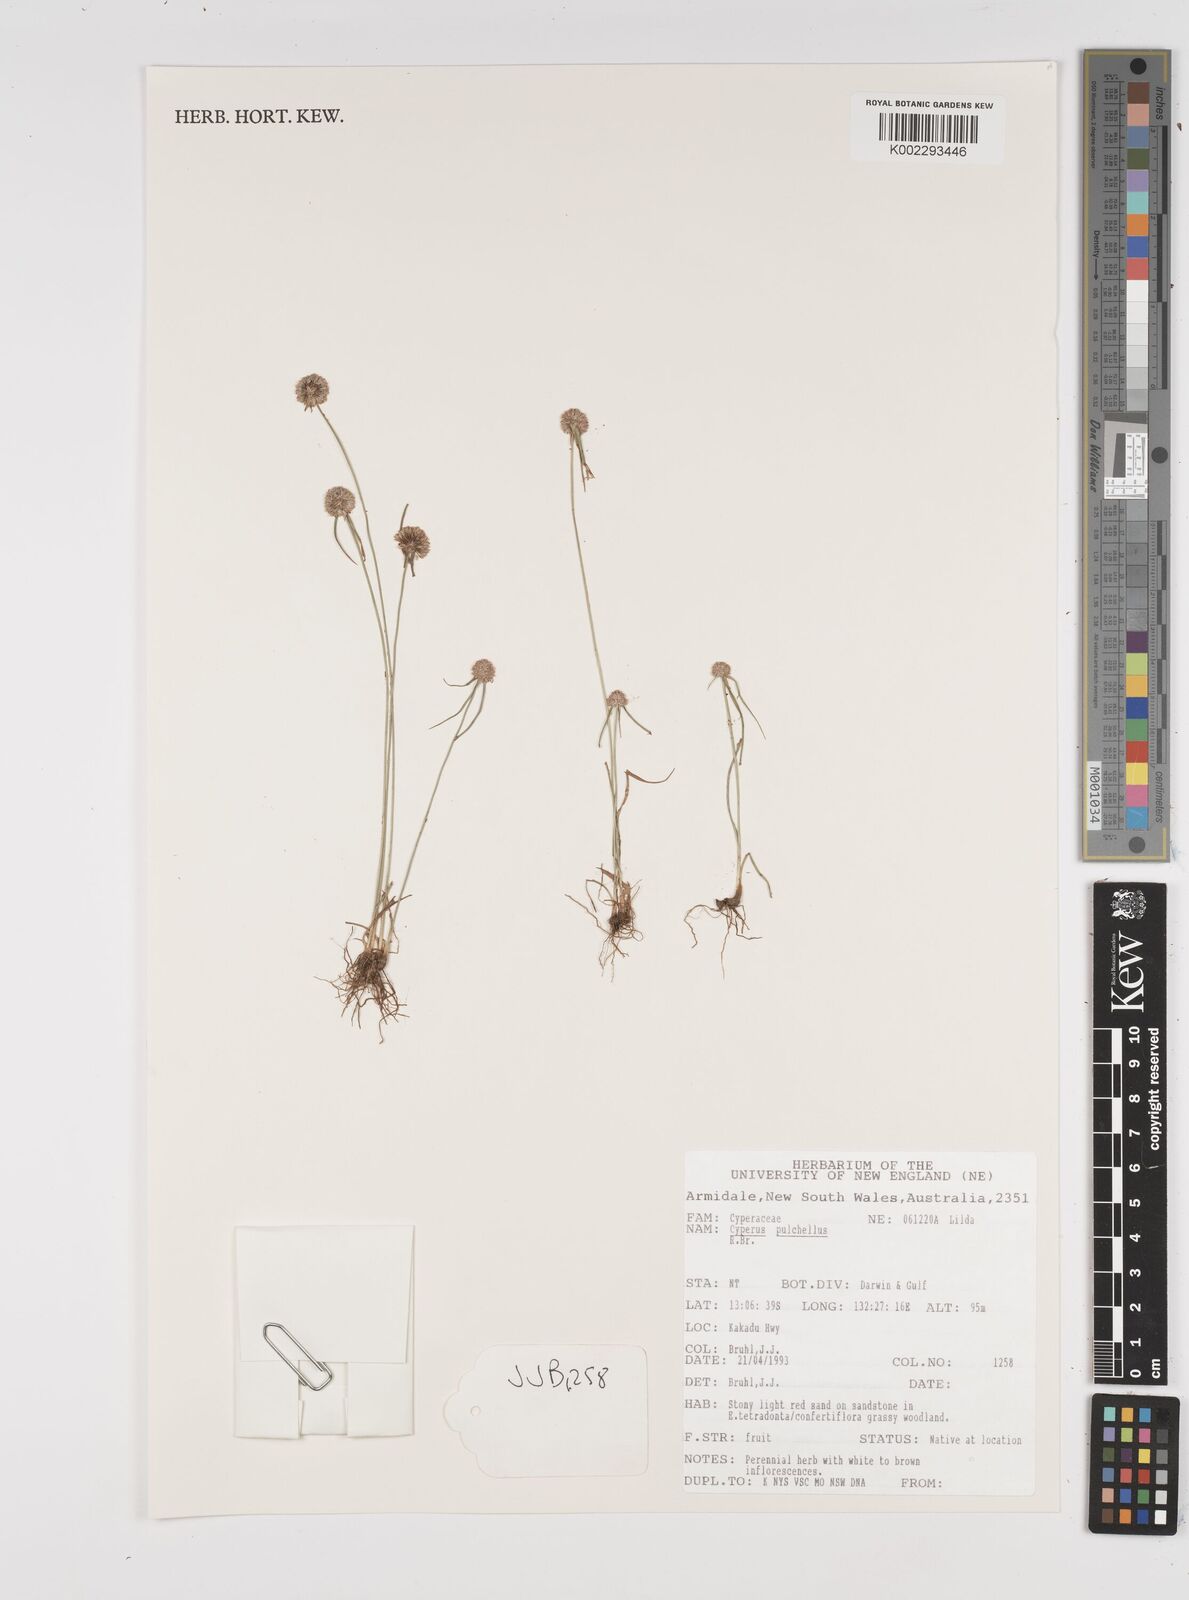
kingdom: Plantae
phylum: Tracheophyta
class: Liliopsida
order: Poales
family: Cyperaceae
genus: Cyperus
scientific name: Cyperus pulchellus
